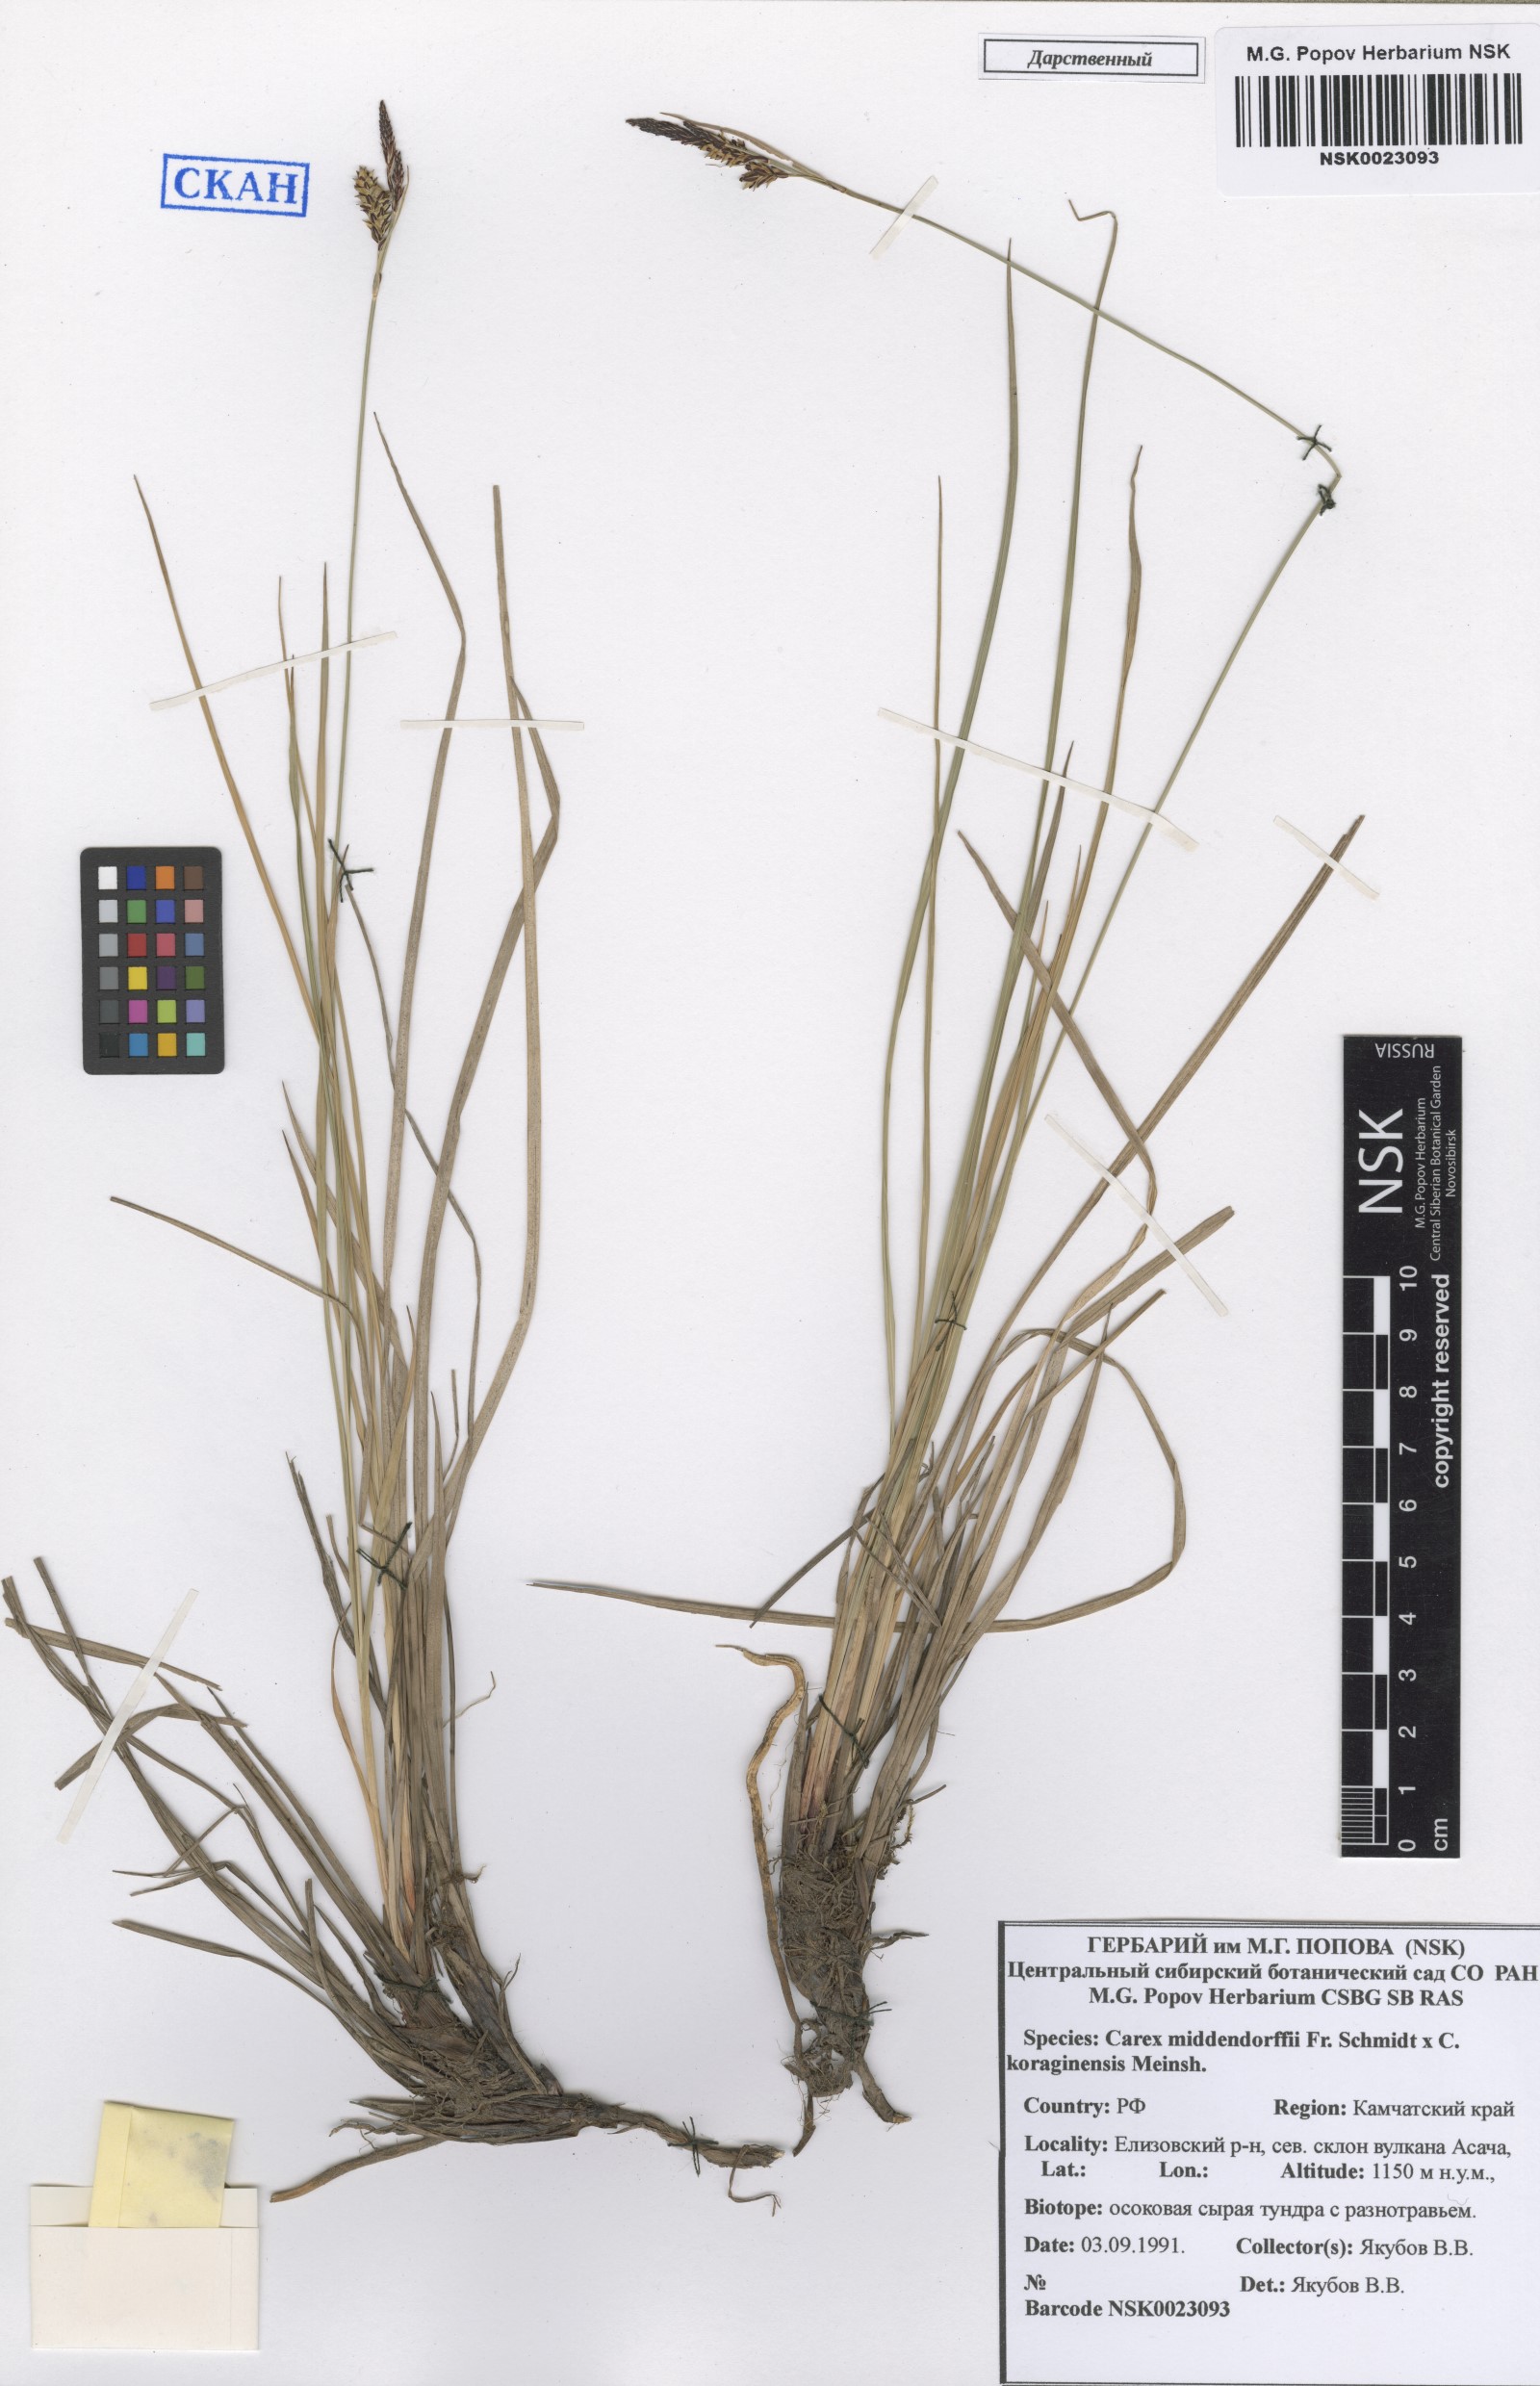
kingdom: Plantae
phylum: Tracheophyta
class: Liliopsida
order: Poales
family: Cyperaceae
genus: Carex
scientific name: Carex middendorffii
